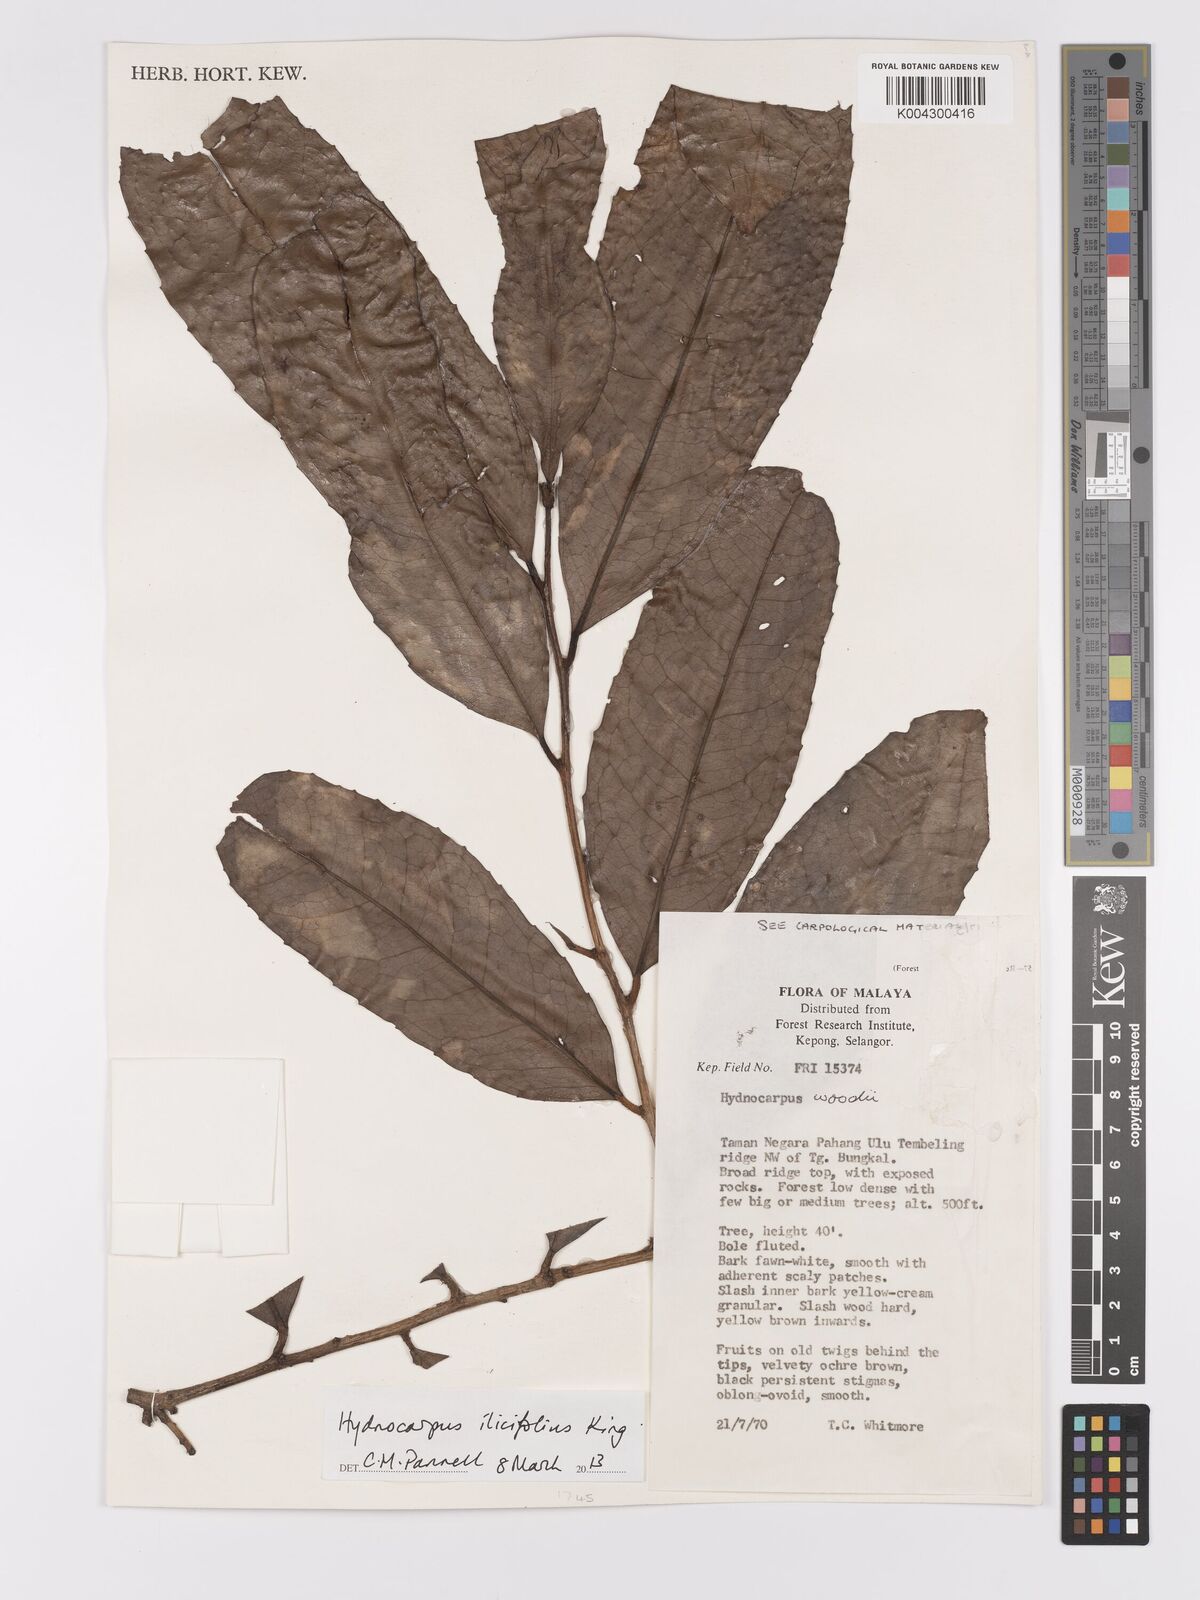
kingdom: Plantae
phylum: Tracheophyta
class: Magnoliopsida
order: Malpighiales
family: Achariaceae
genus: Hydnocarpus
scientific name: Hydnocarpus ilicifolius
